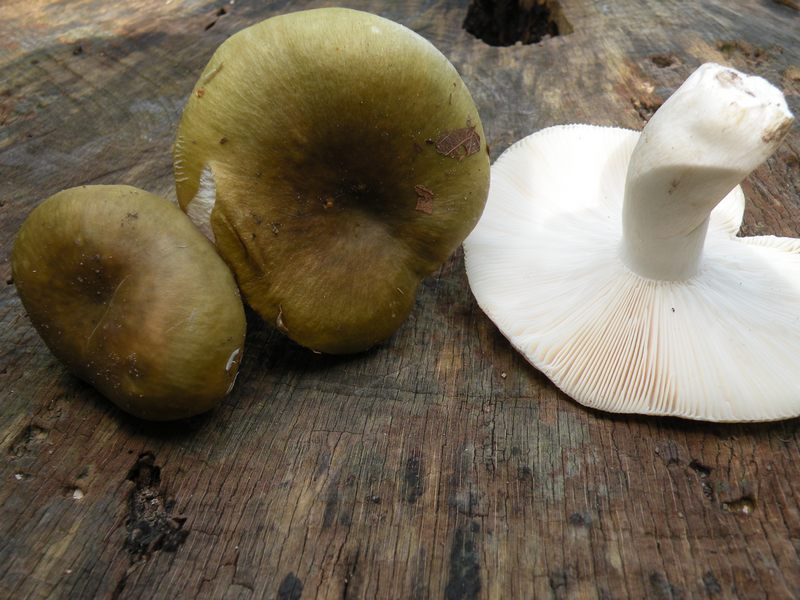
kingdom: Fungi
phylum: Basidiomycota
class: Agaricomycetes
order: Russulales
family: Russulaceae
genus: Russula
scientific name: Russula heterophylla
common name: gaffelbladet skørhat
